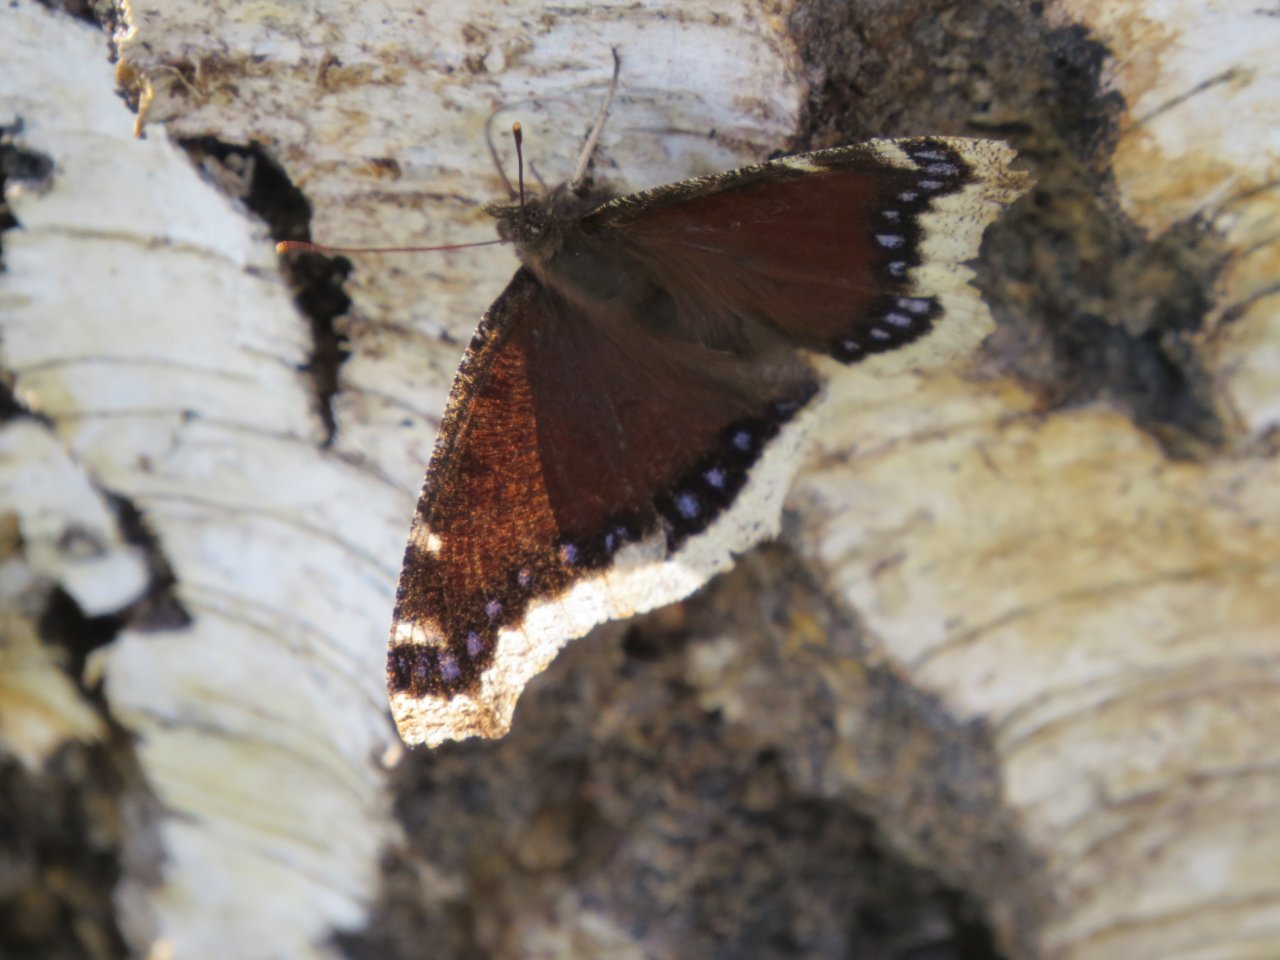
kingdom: Animalia
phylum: Arthropoda
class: Insecta
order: Lepidoptera
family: Nymphalidae
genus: Nymphalis
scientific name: Nymphalis antiopa
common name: Mourning Cloak
